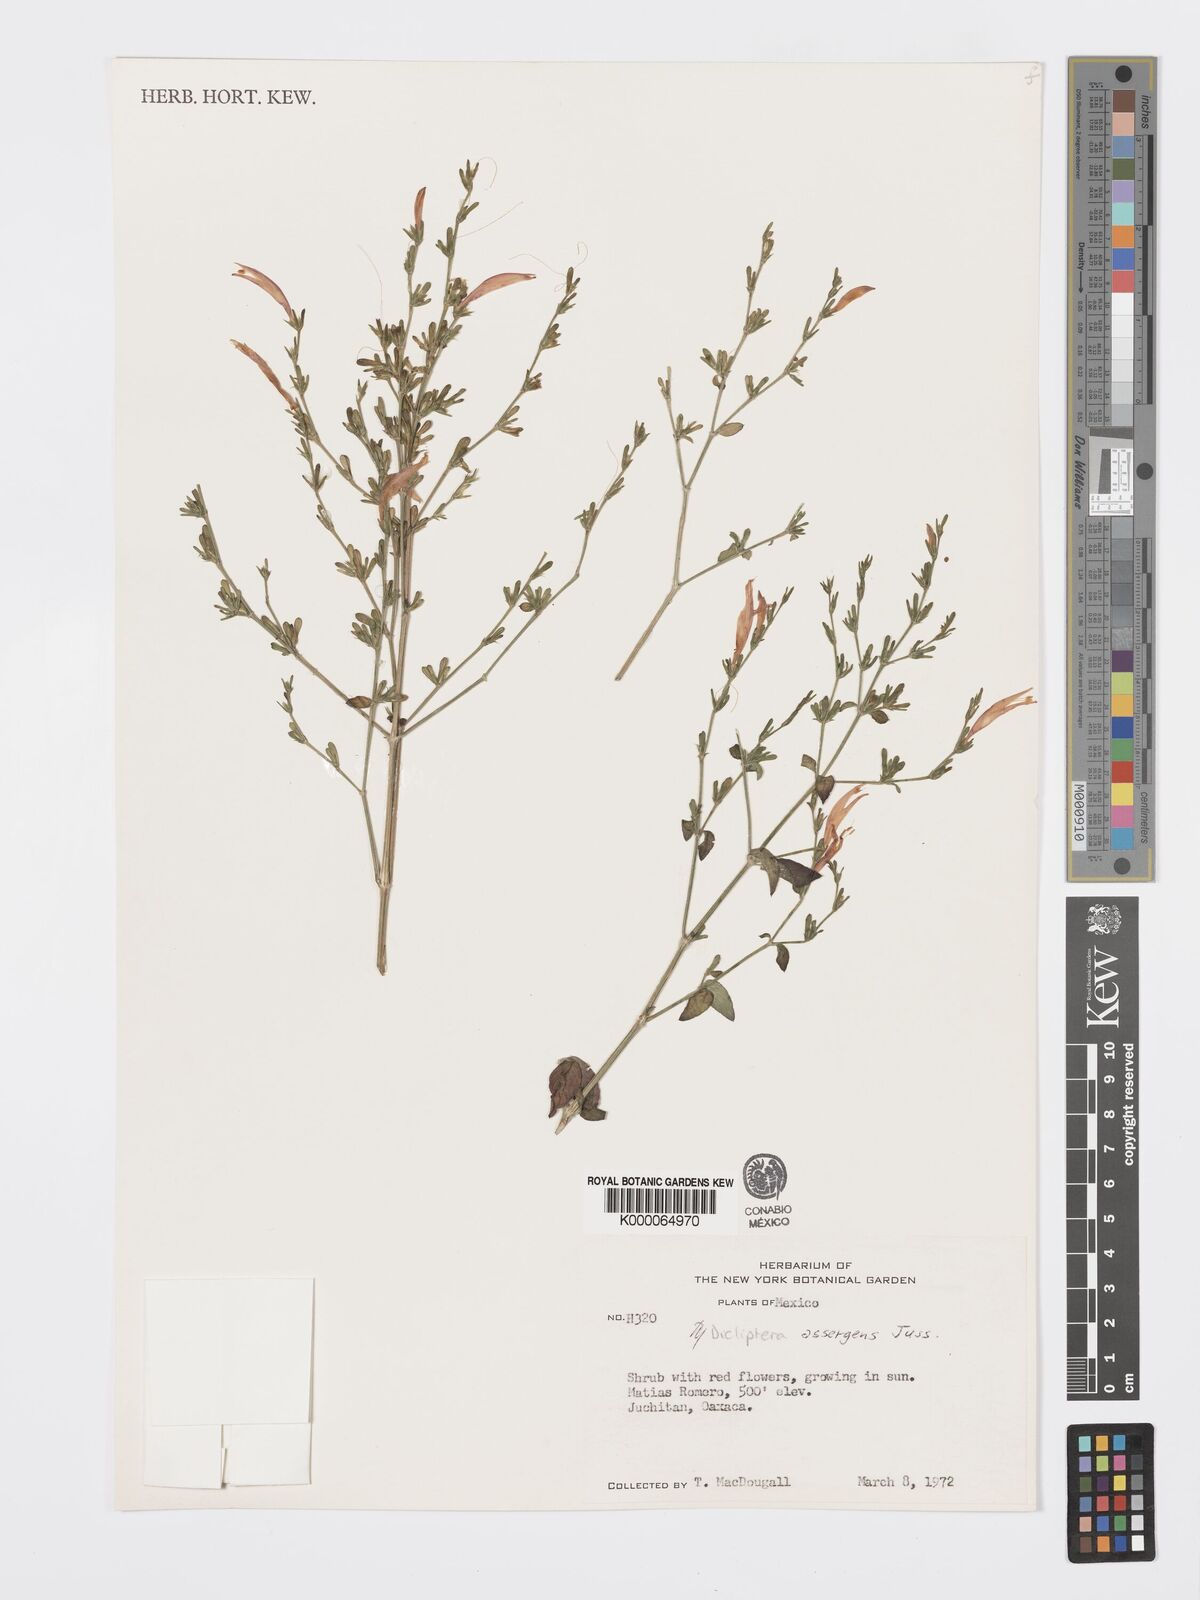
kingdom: Plantae
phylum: Tracheophyta
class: Magnoliopsida
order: Lamiales
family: Acanthaceae
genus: Dicliptera
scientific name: Dicliptera sexangularis
